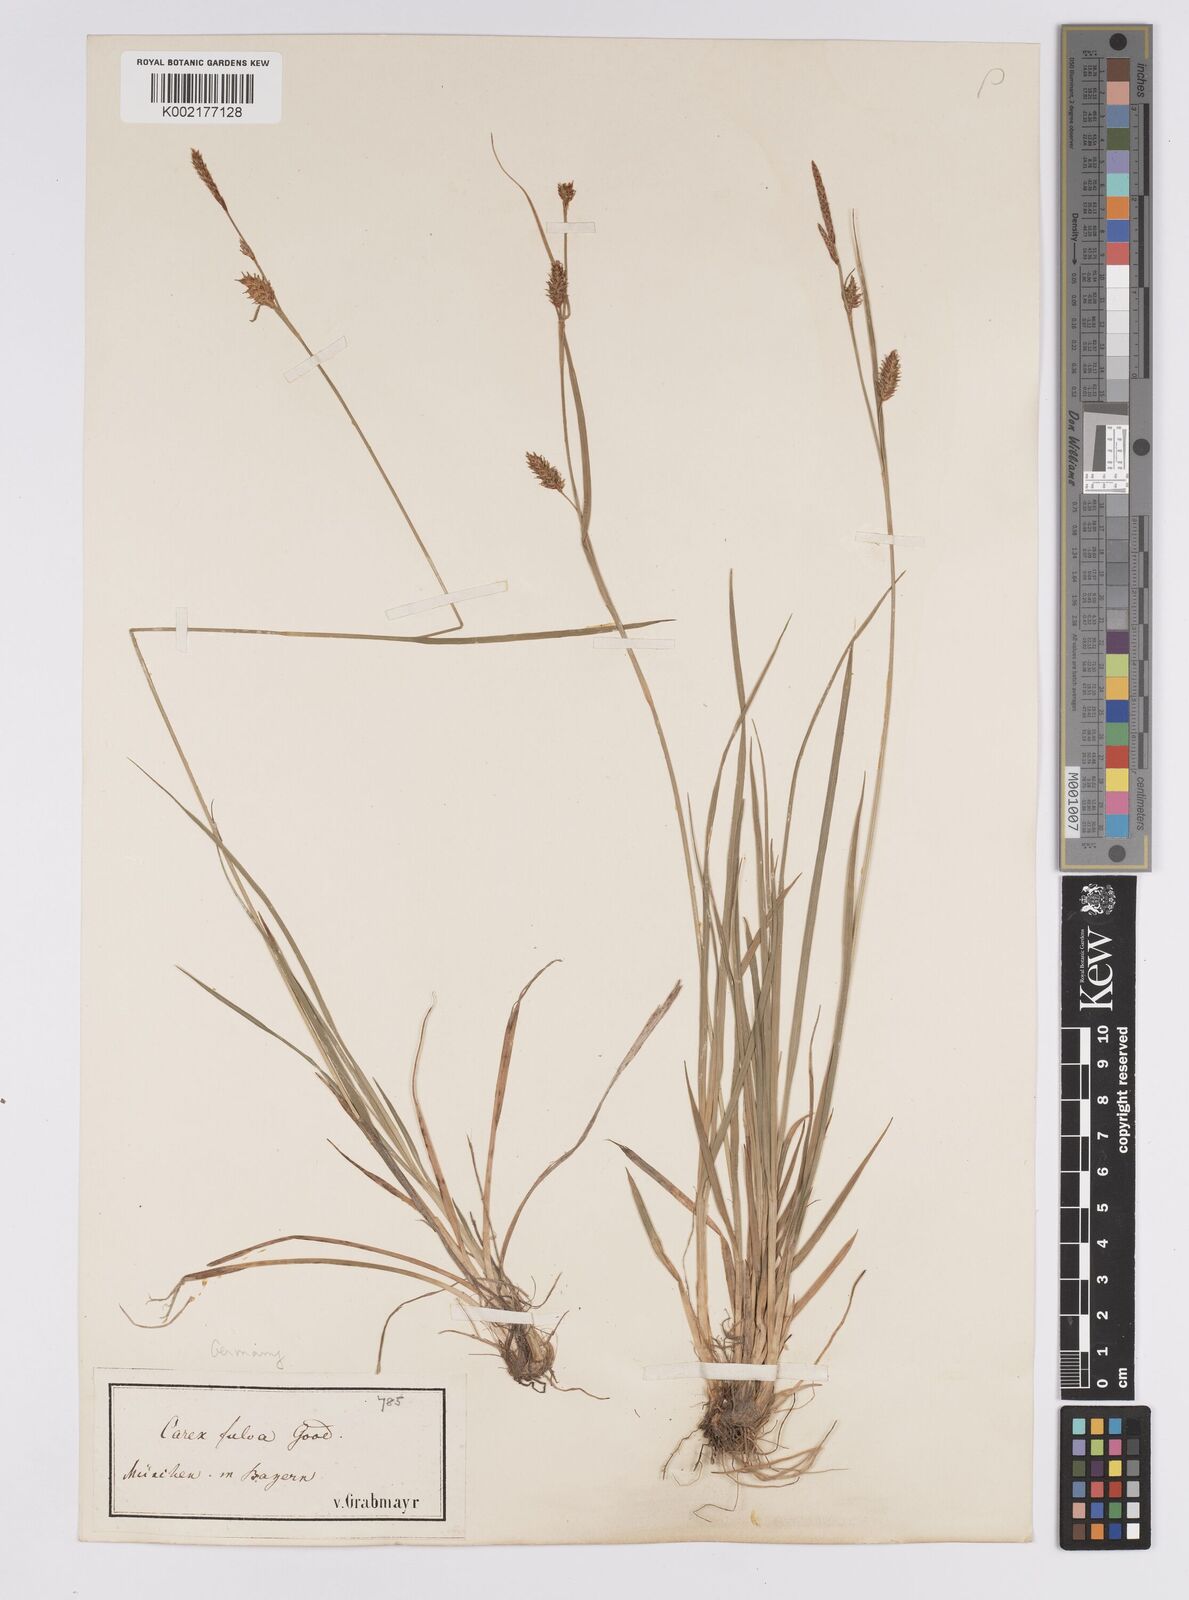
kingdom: Plantae
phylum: Tracheophyta
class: Liliopsida
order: Poales
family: Cyperaceae
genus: Carex
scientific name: Carex hostiana
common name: Tawny sedge
